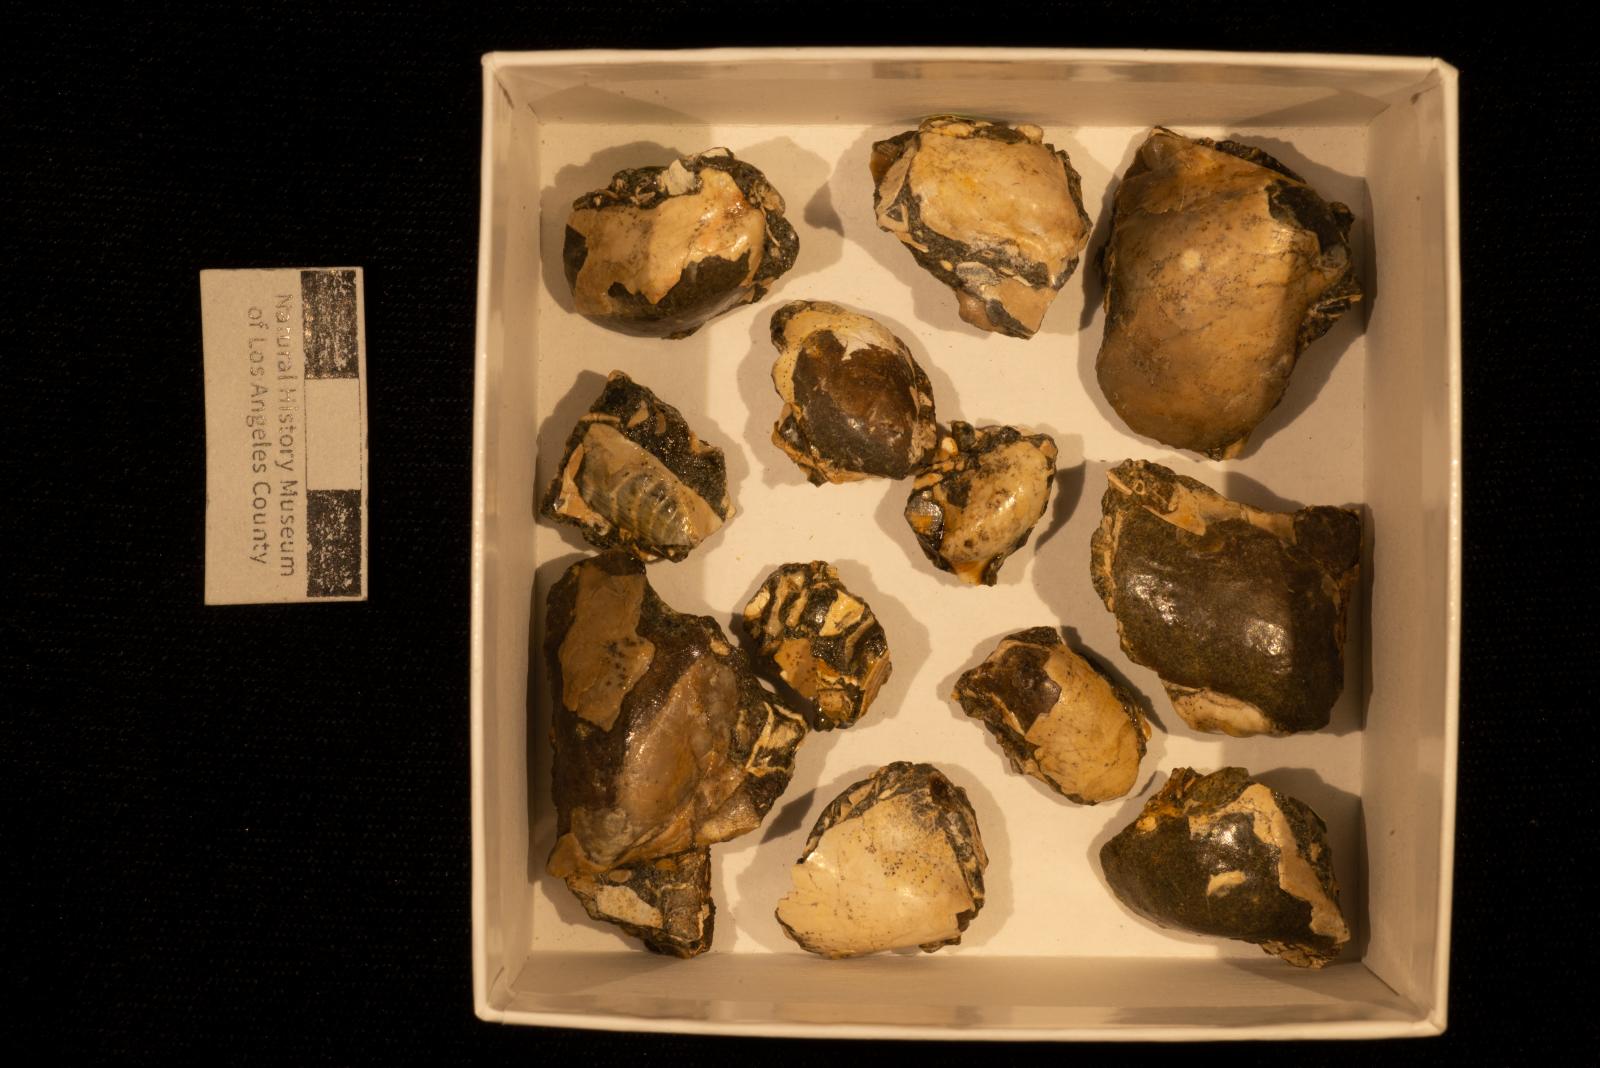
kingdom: Animalia
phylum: Mollusca
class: Bivalvia
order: Ostreida
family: Pteriidae
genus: Pteria
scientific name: Pteria pellucida
